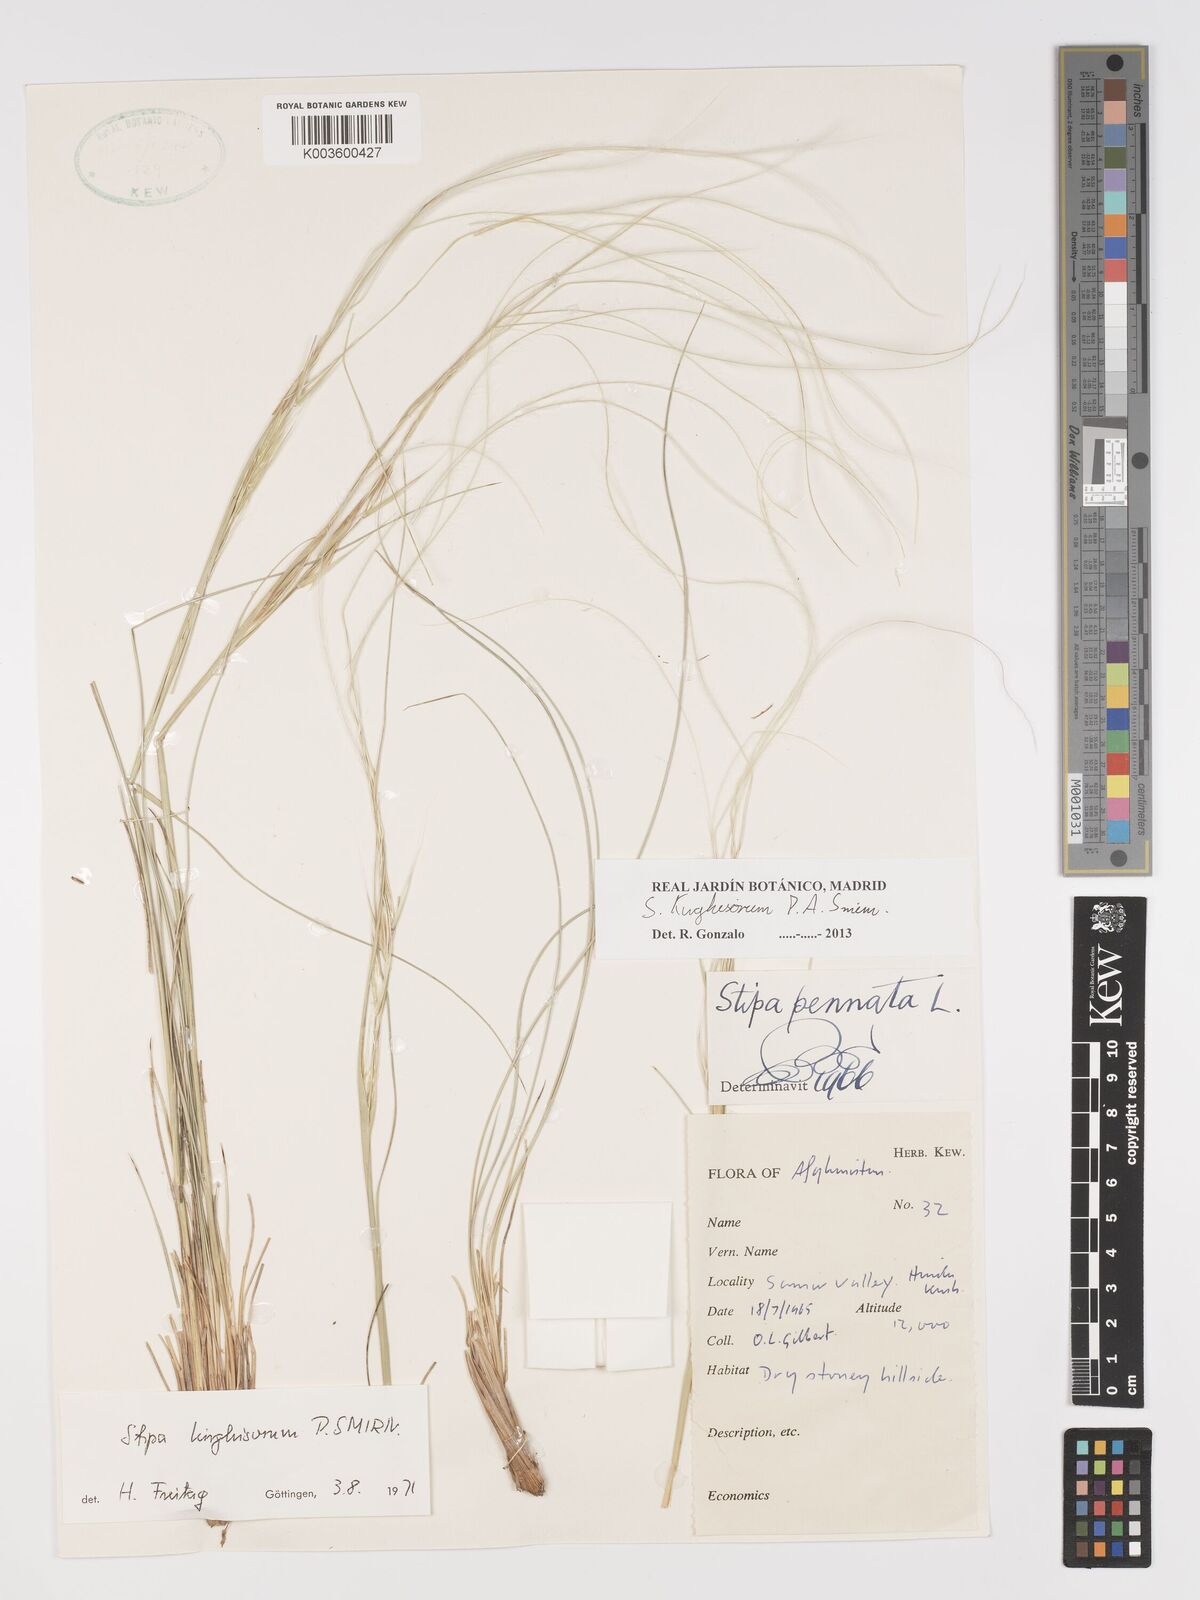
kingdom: Plantae
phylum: Tracheophyta
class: Liliopsida
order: Poales
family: Poaceae
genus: Stipa
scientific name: Stipa kirghisorum
